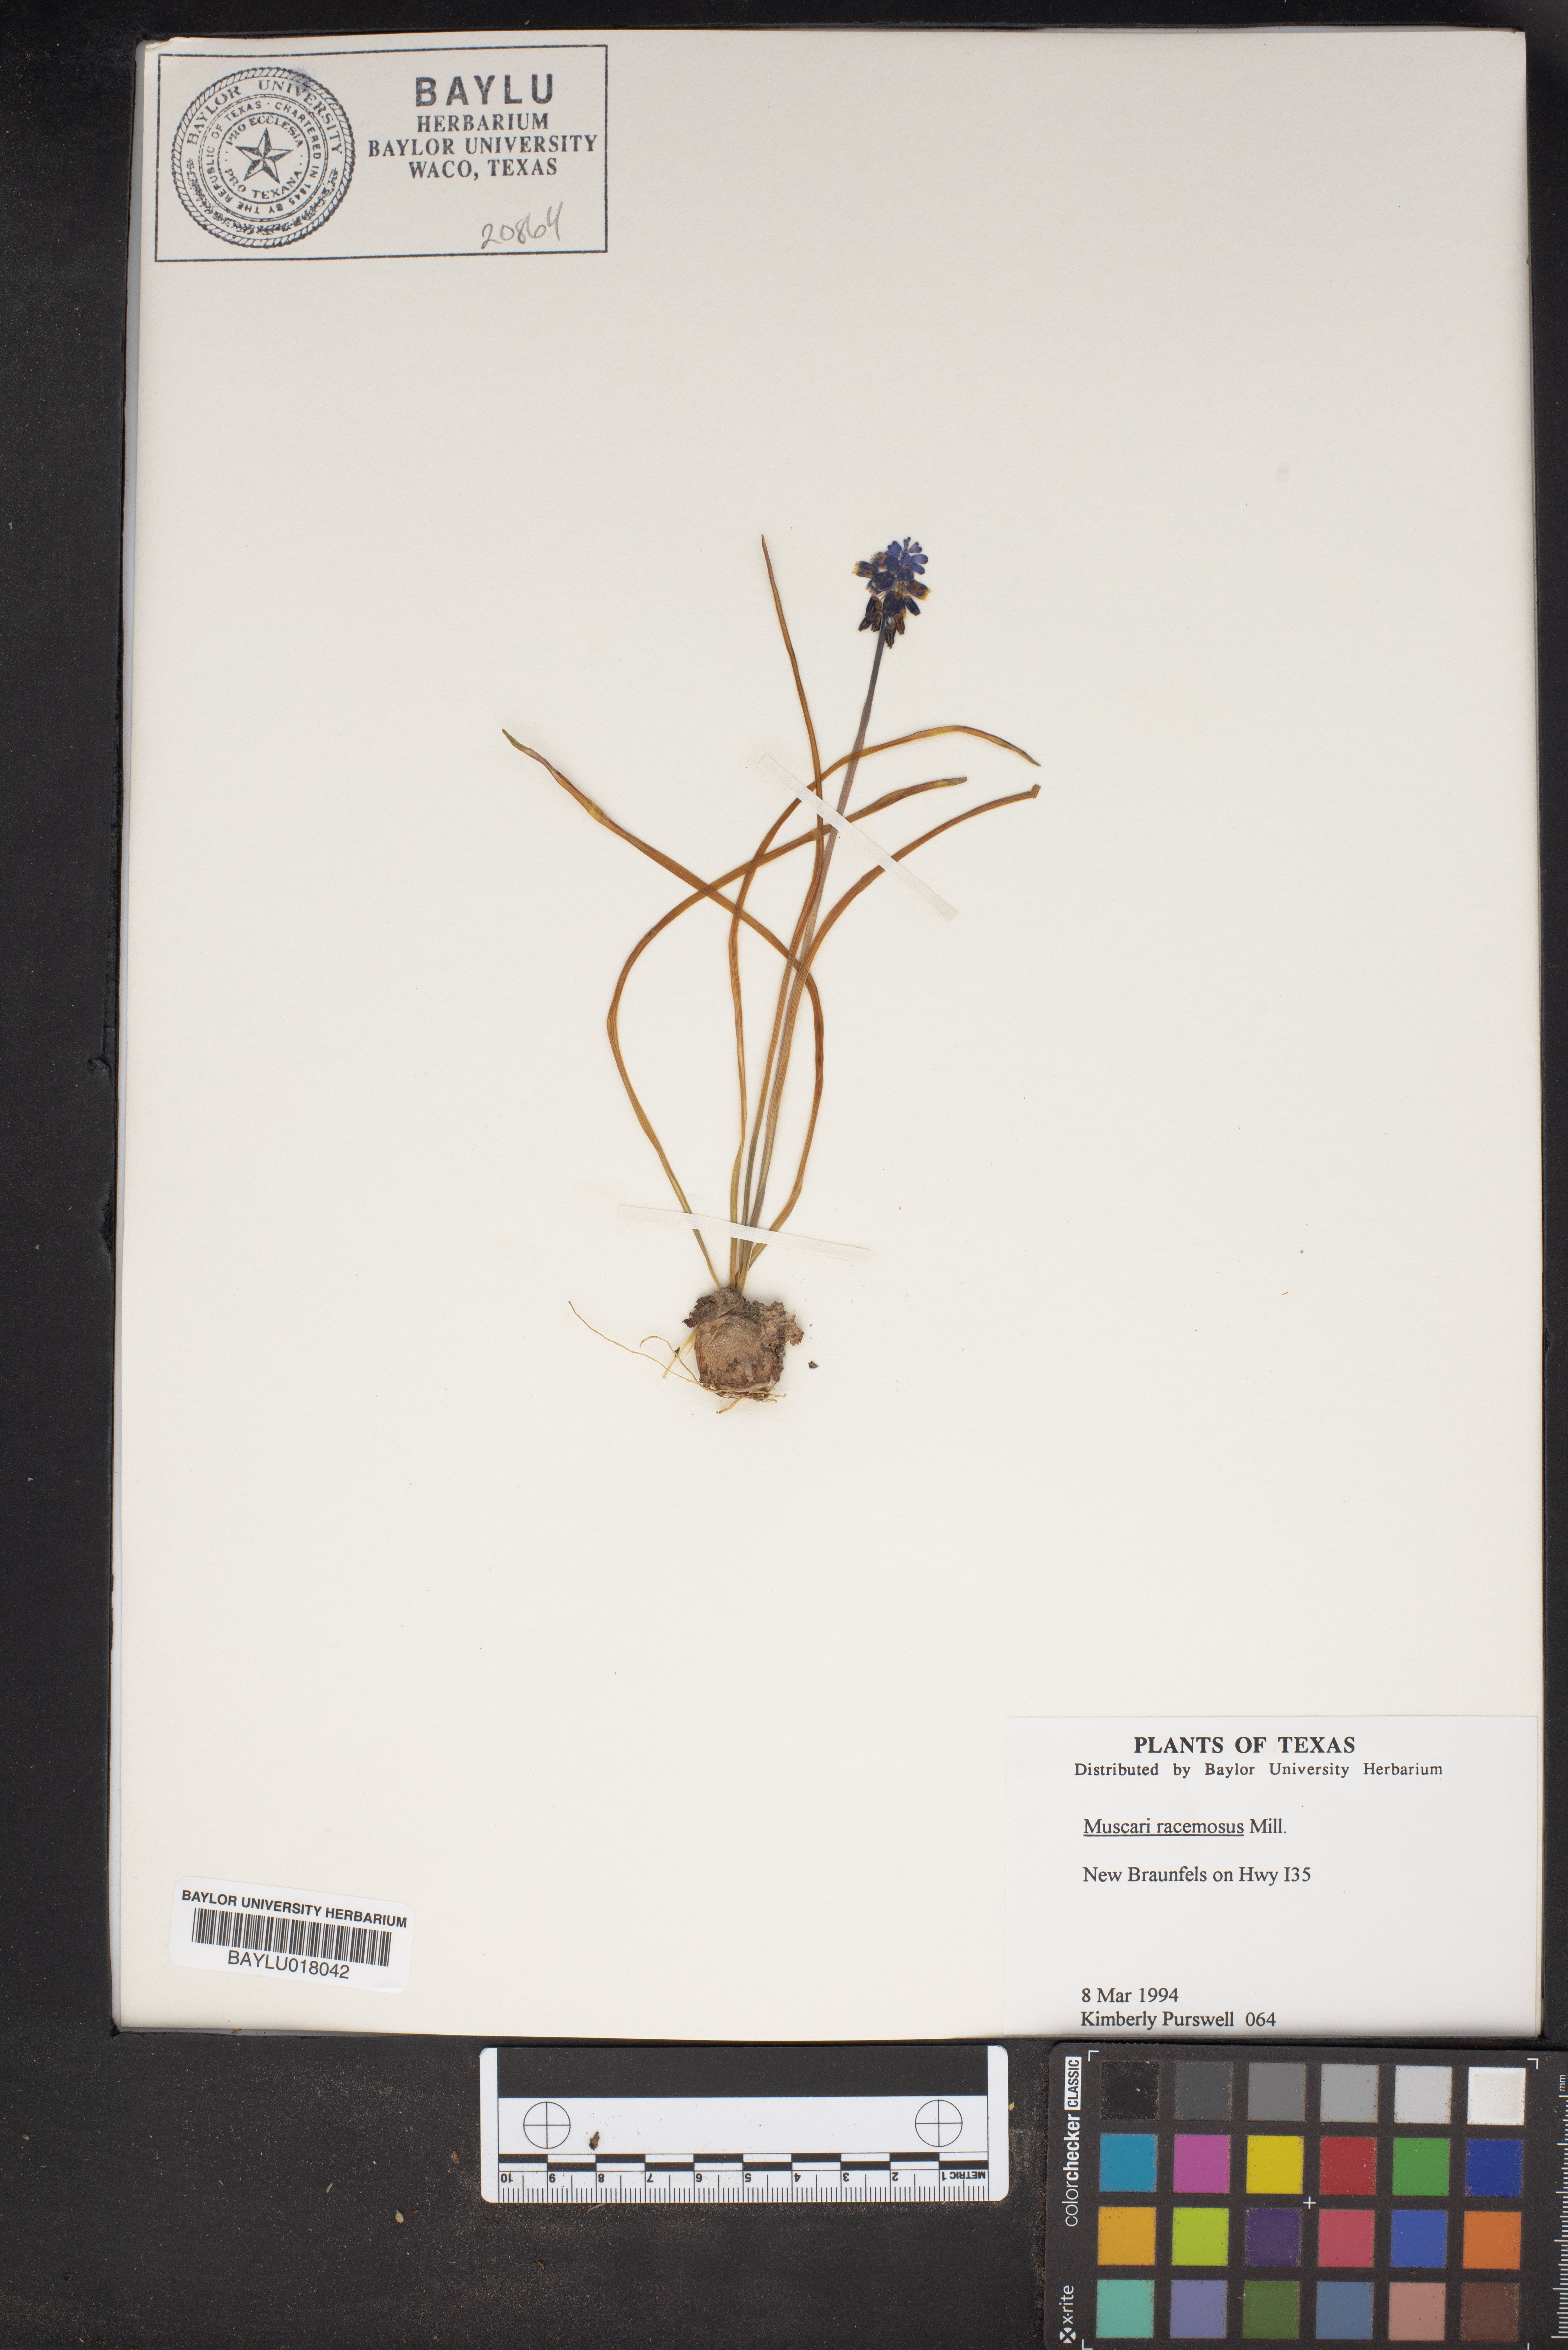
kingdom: Plantae
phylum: Tracheophyta
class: Liliopsida
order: Asparagales
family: Asparagaceae
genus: Muscarimia
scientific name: Muscarimia muscari
